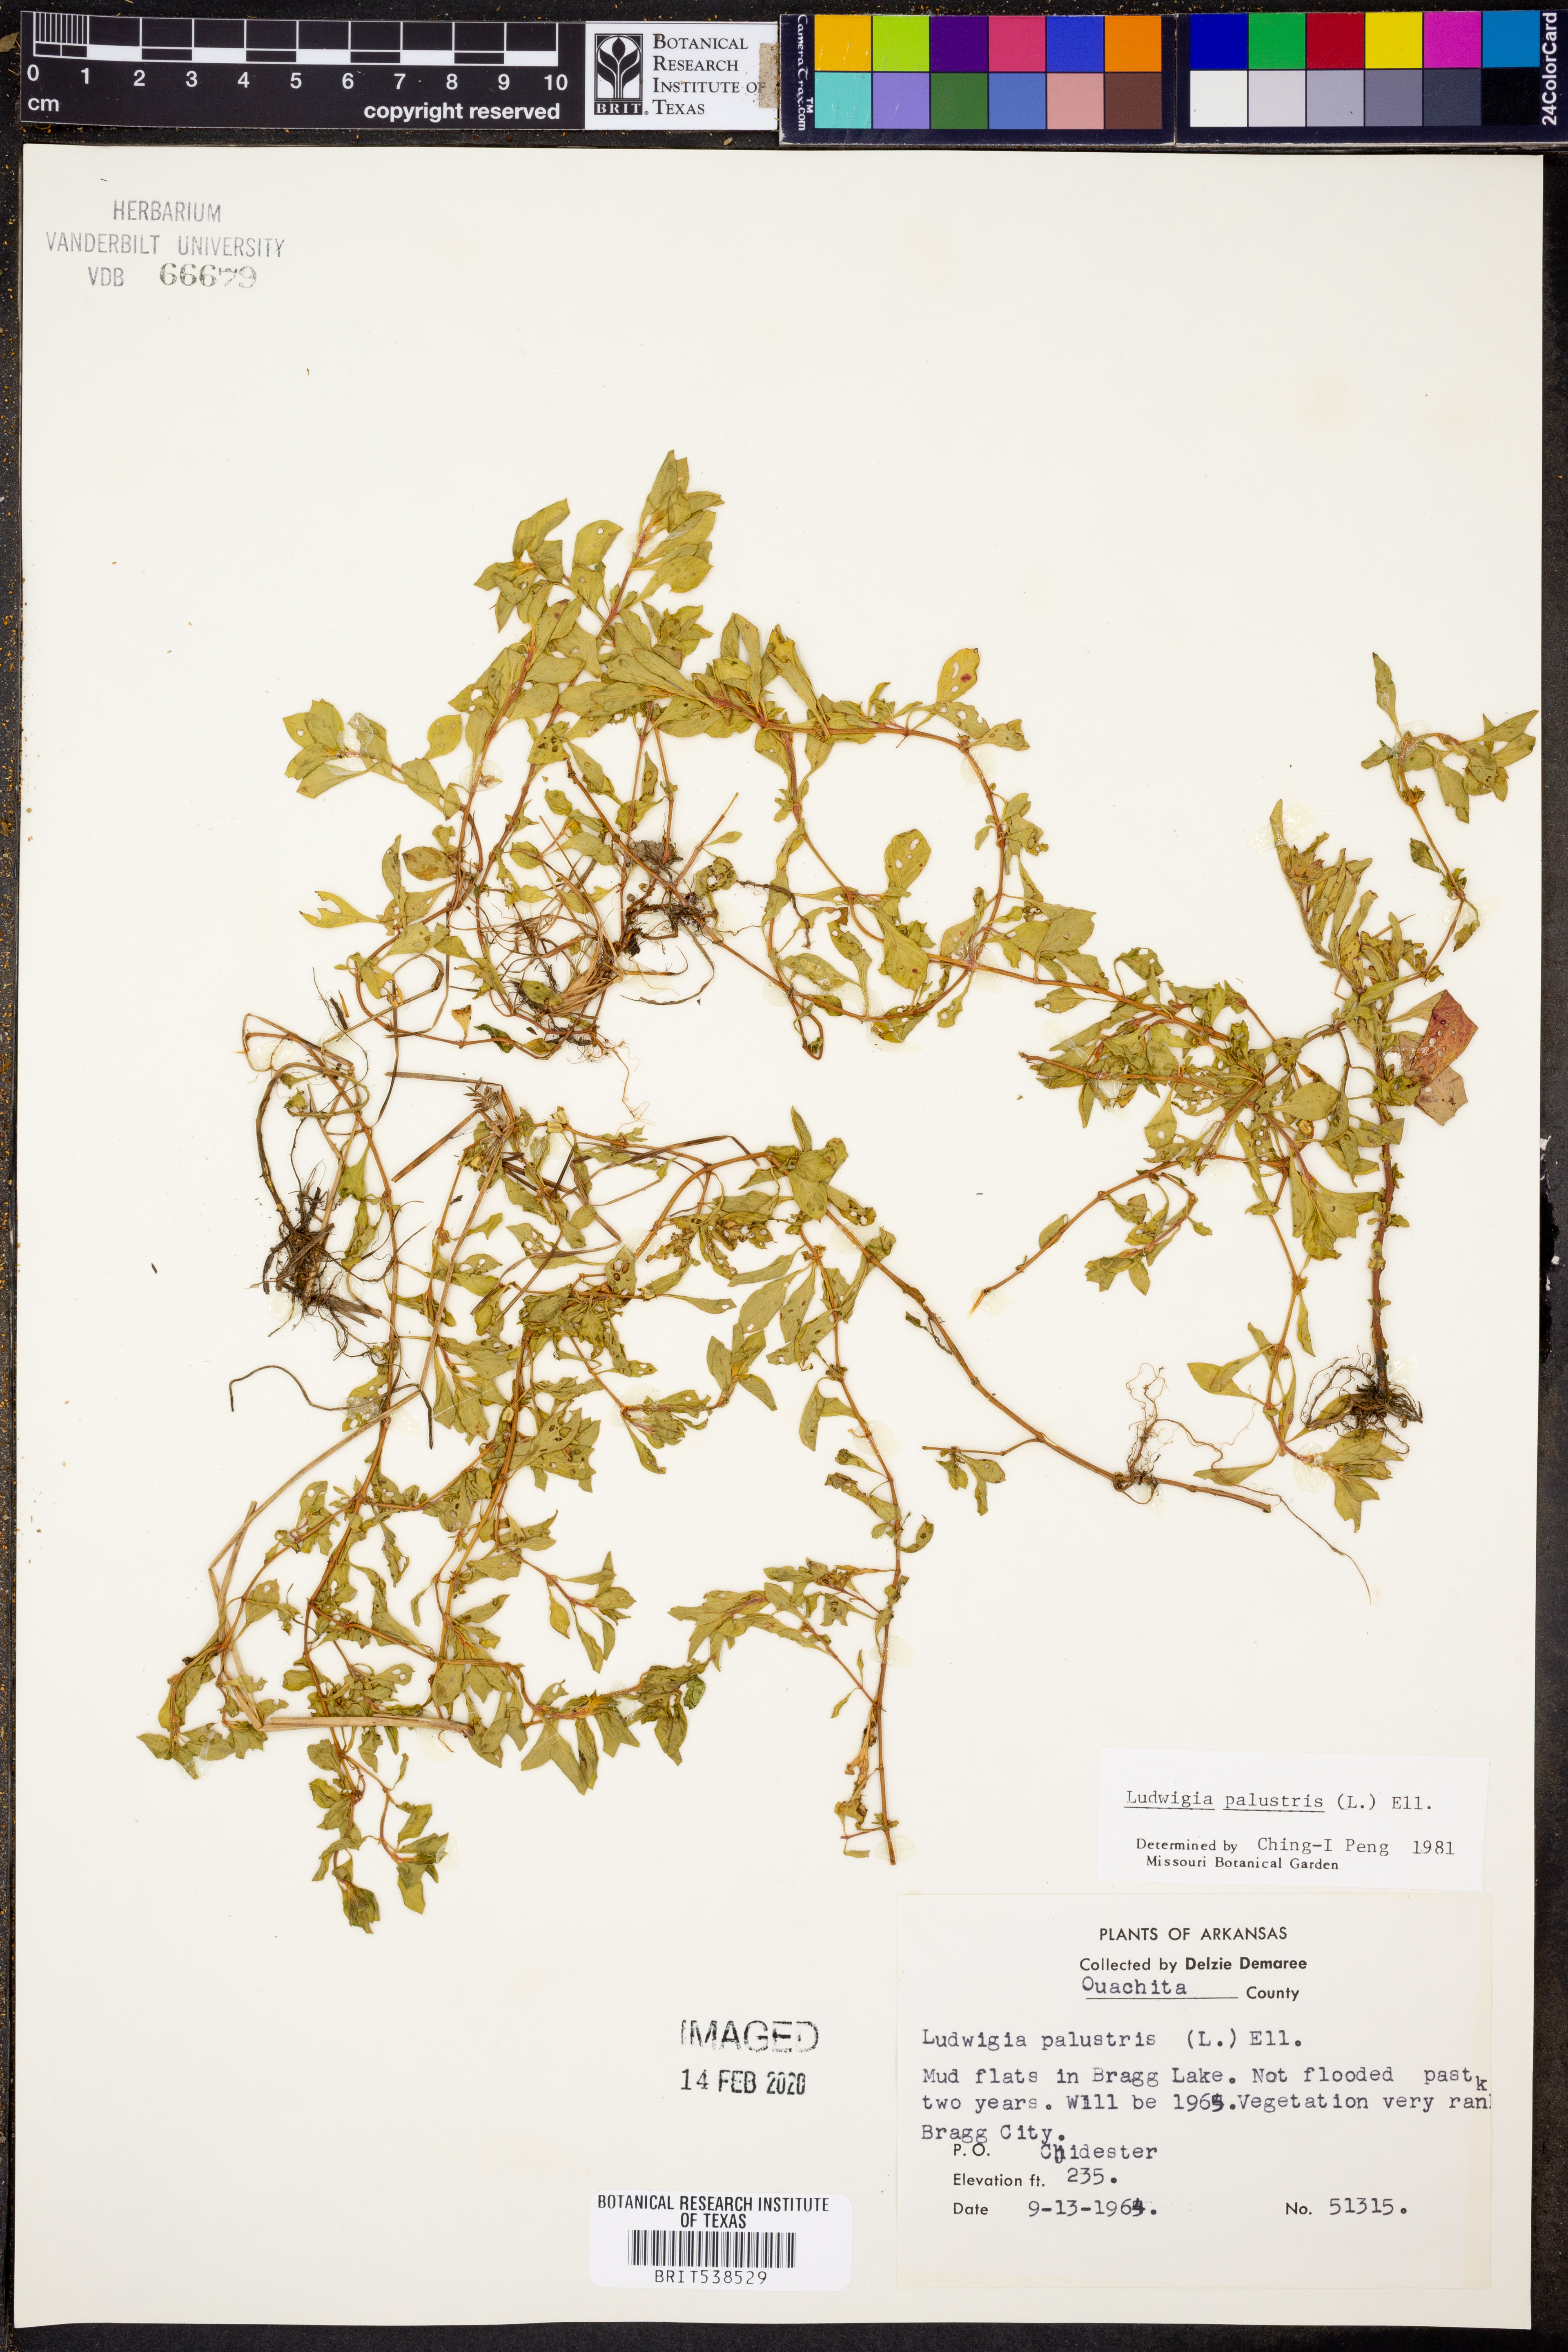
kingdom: Plantae
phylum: Tracheophyta
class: Magnoliopsida
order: Myrtales
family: Onagraceae
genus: Ludwigia
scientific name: Ludwigia palustris
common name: Hampshire-purslane
